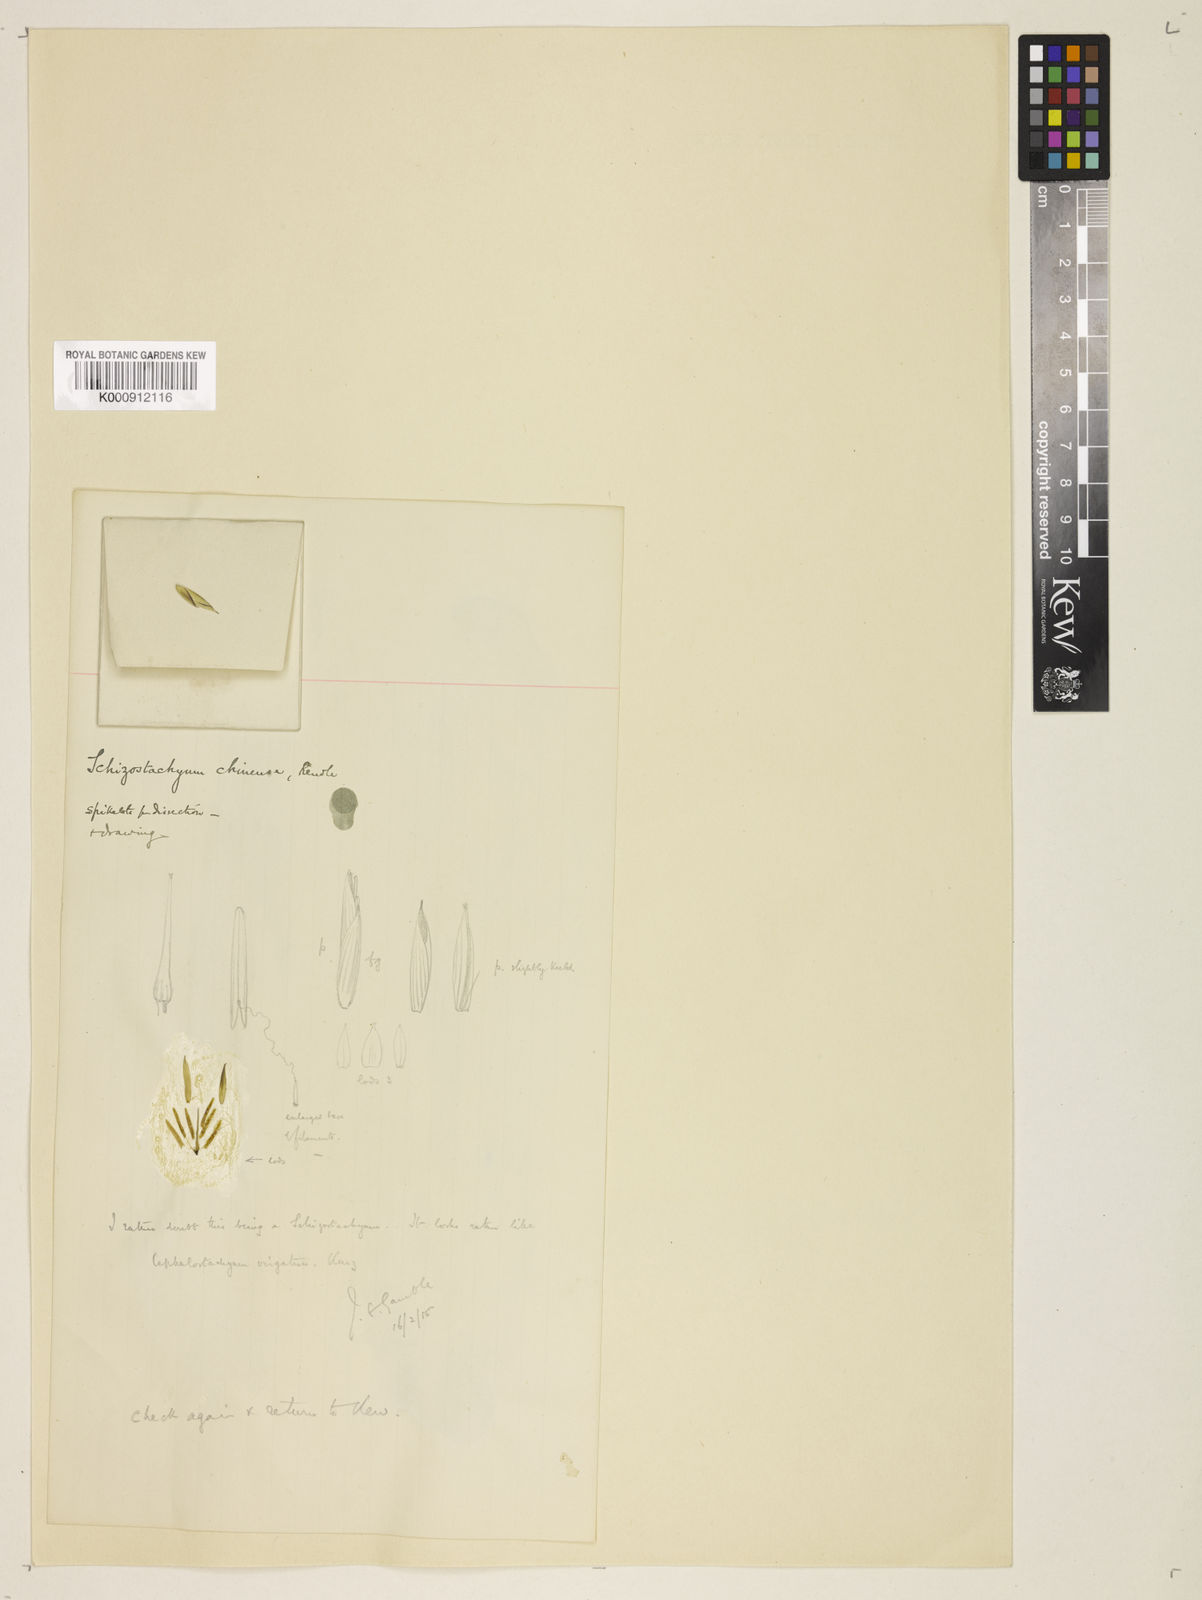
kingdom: Plantae
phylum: Tracheophyta
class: Liliopsida
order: Poales
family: Poaceae
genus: Cephalostachyum
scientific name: Cephalostachyum chinense
